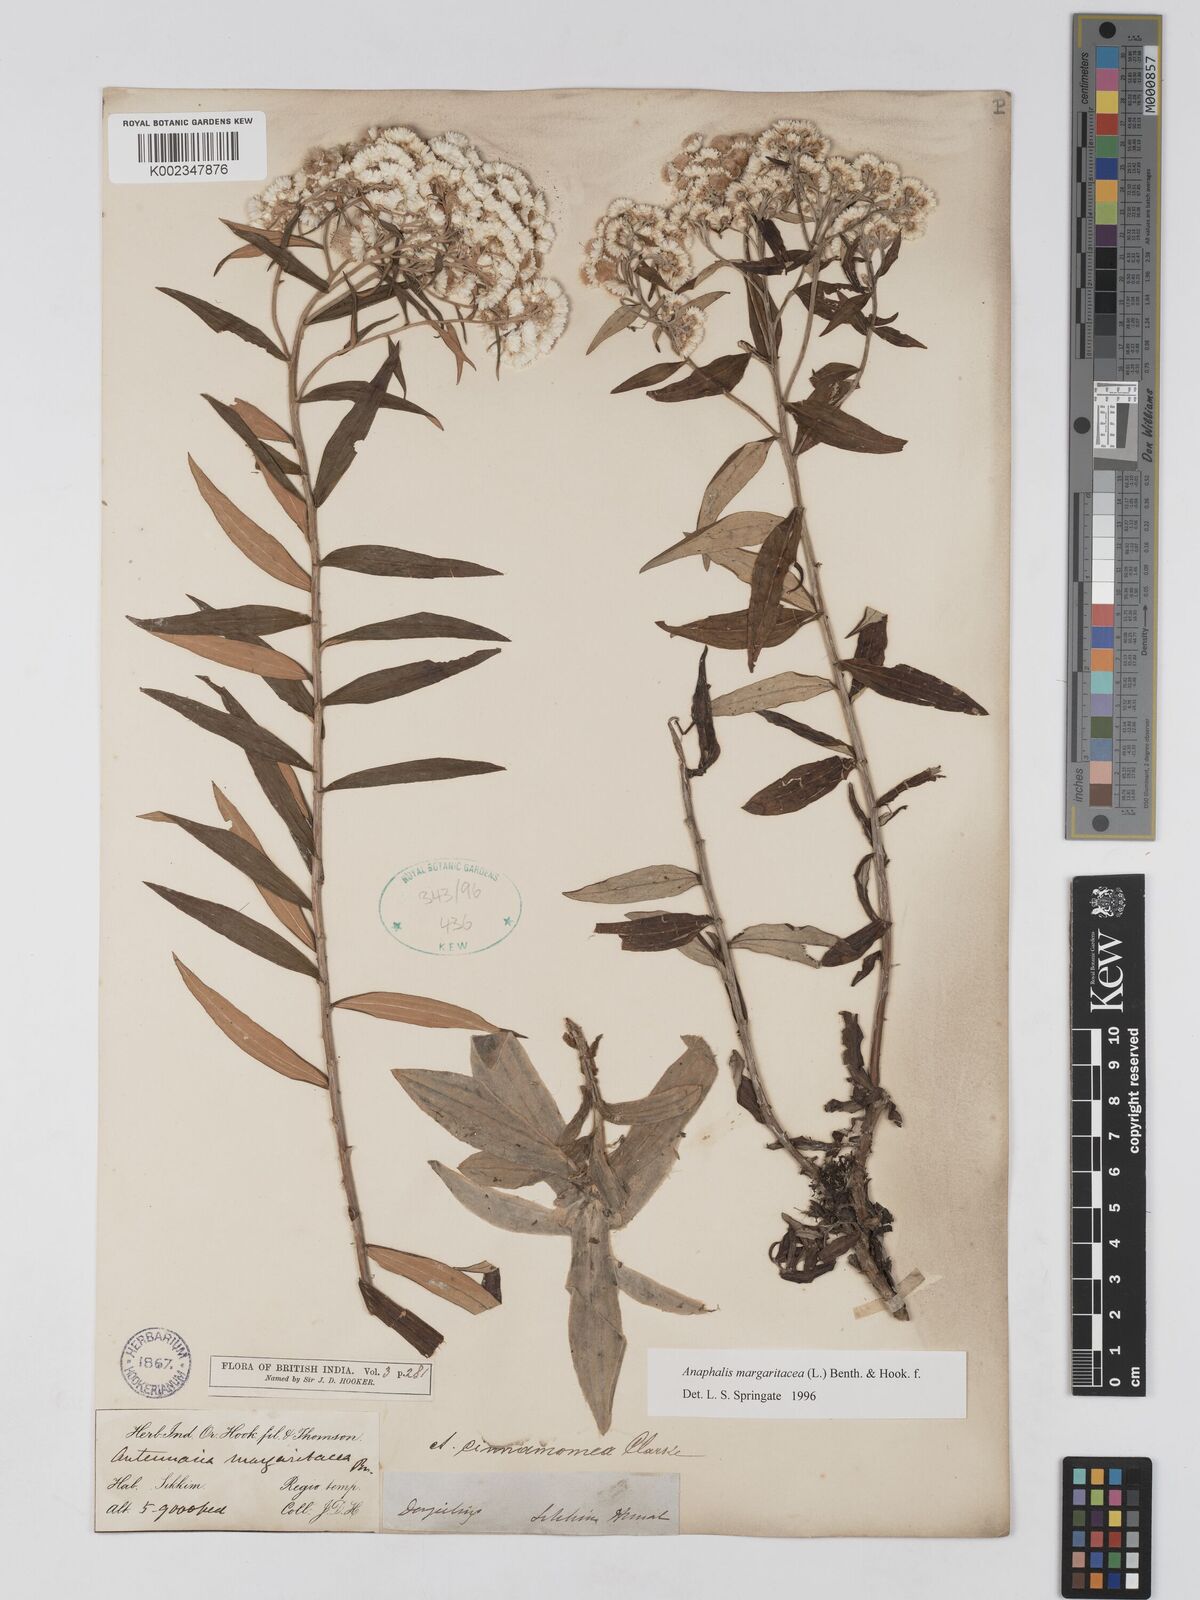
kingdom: Plantae
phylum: Tracheophyta
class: Magnoliopsida
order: Asterales
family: Asteraceae
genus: Anaphalis
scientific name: Anaphalis margaritacea
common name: Pearly everlasting
